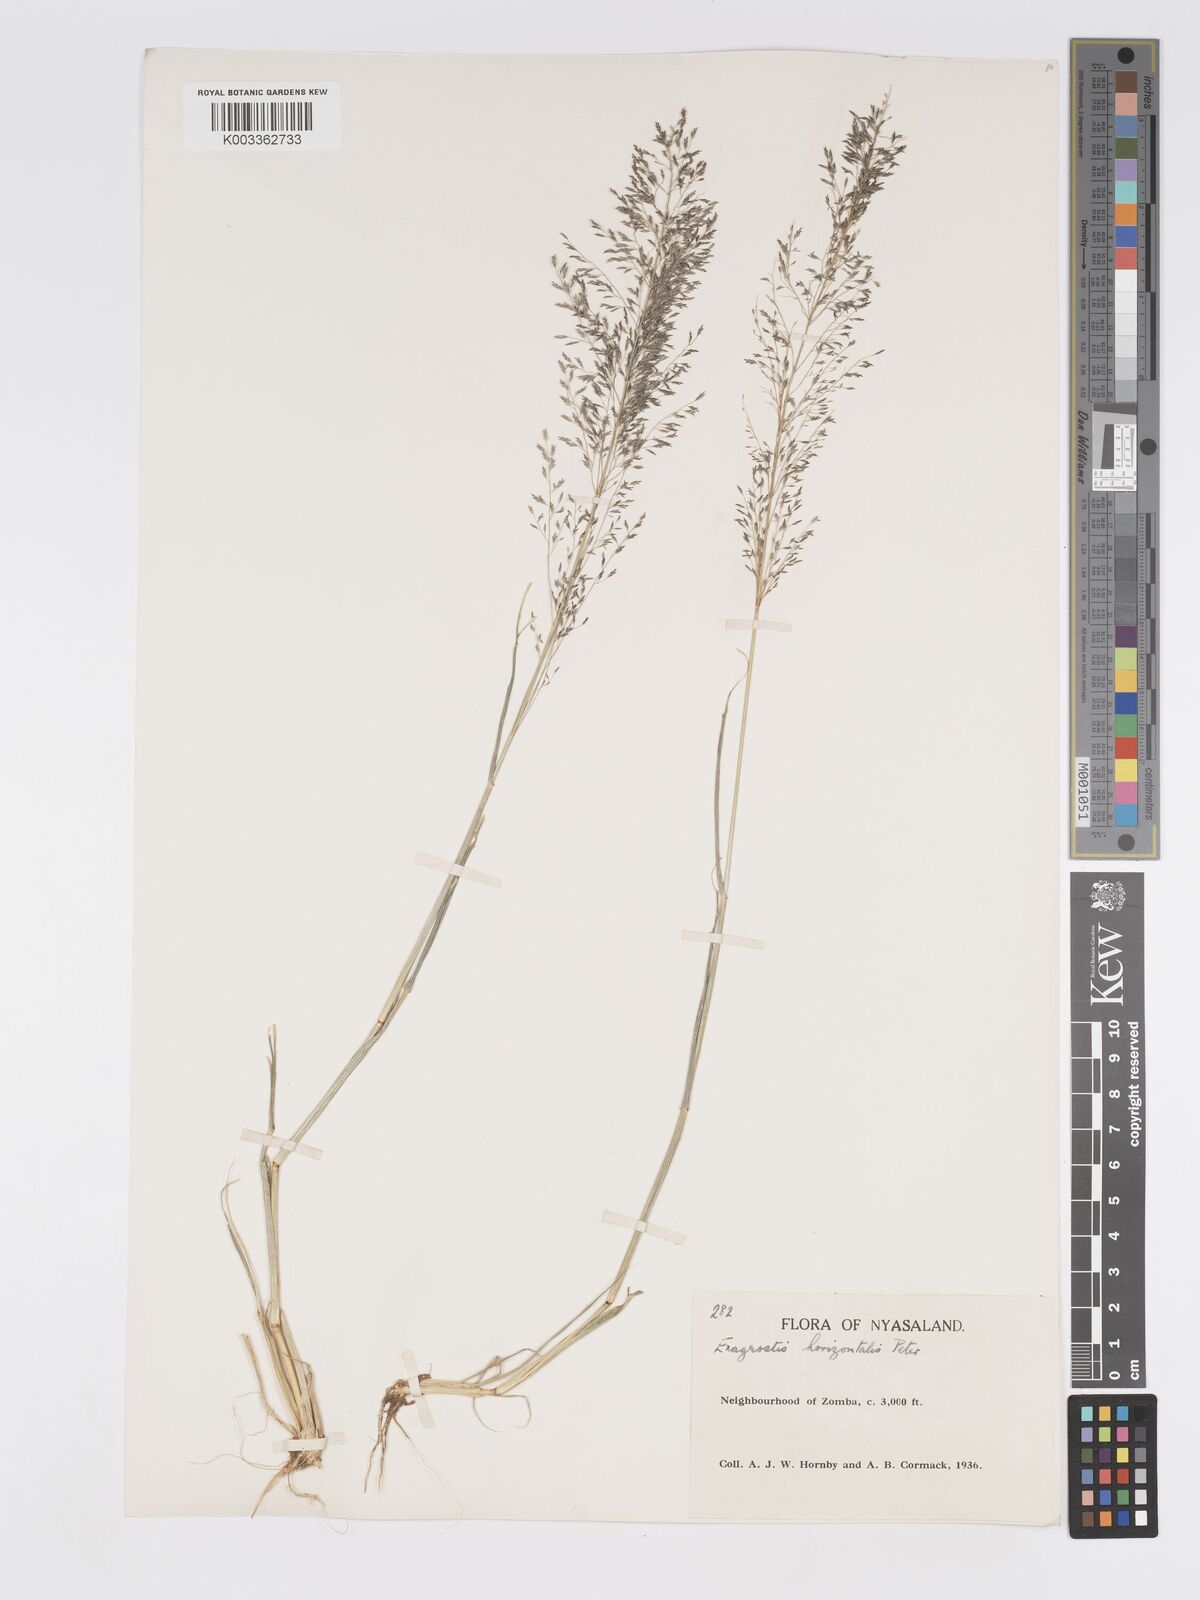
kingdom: Plantae
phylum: Tracheophyta
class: Liliopsida
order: Poales
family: Poaceae
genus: Eragrostis
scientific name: Eragrostis cylindriflora
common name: Cylinderflower lovegrass
